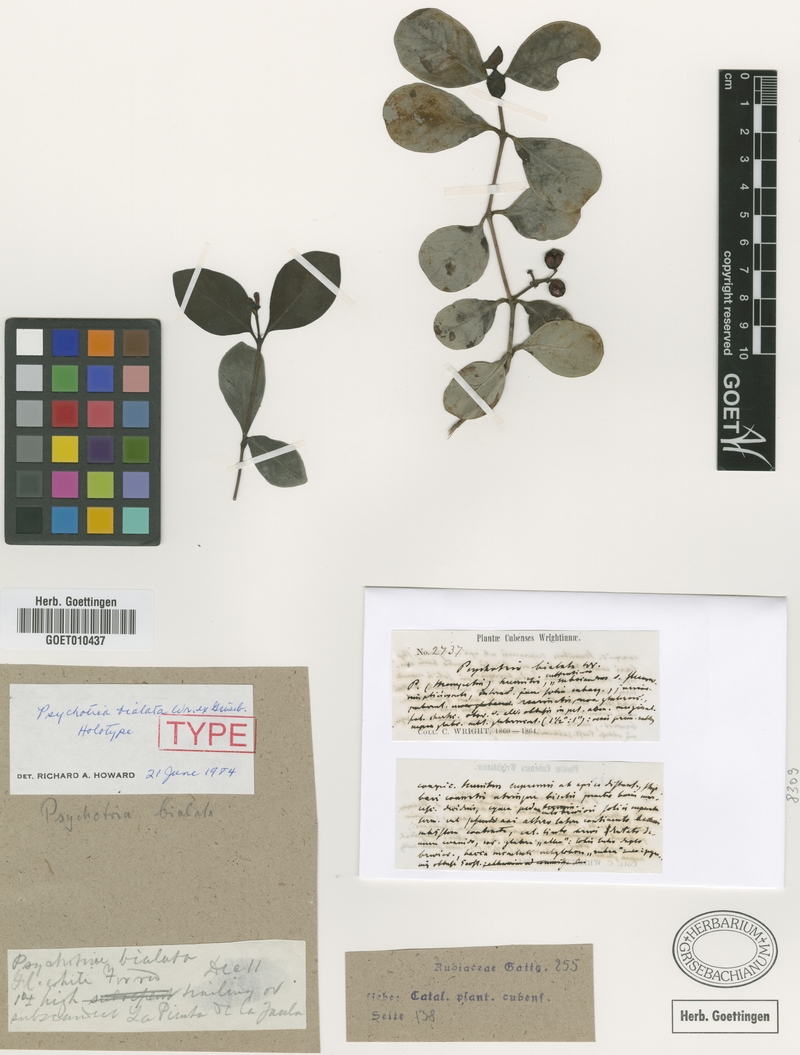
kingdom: Plantae
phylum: Tracheophyta
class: Magnoliopsida
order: Gentianales
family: Rubiaceae
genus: Psychotria
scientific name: Psychotria bialata
